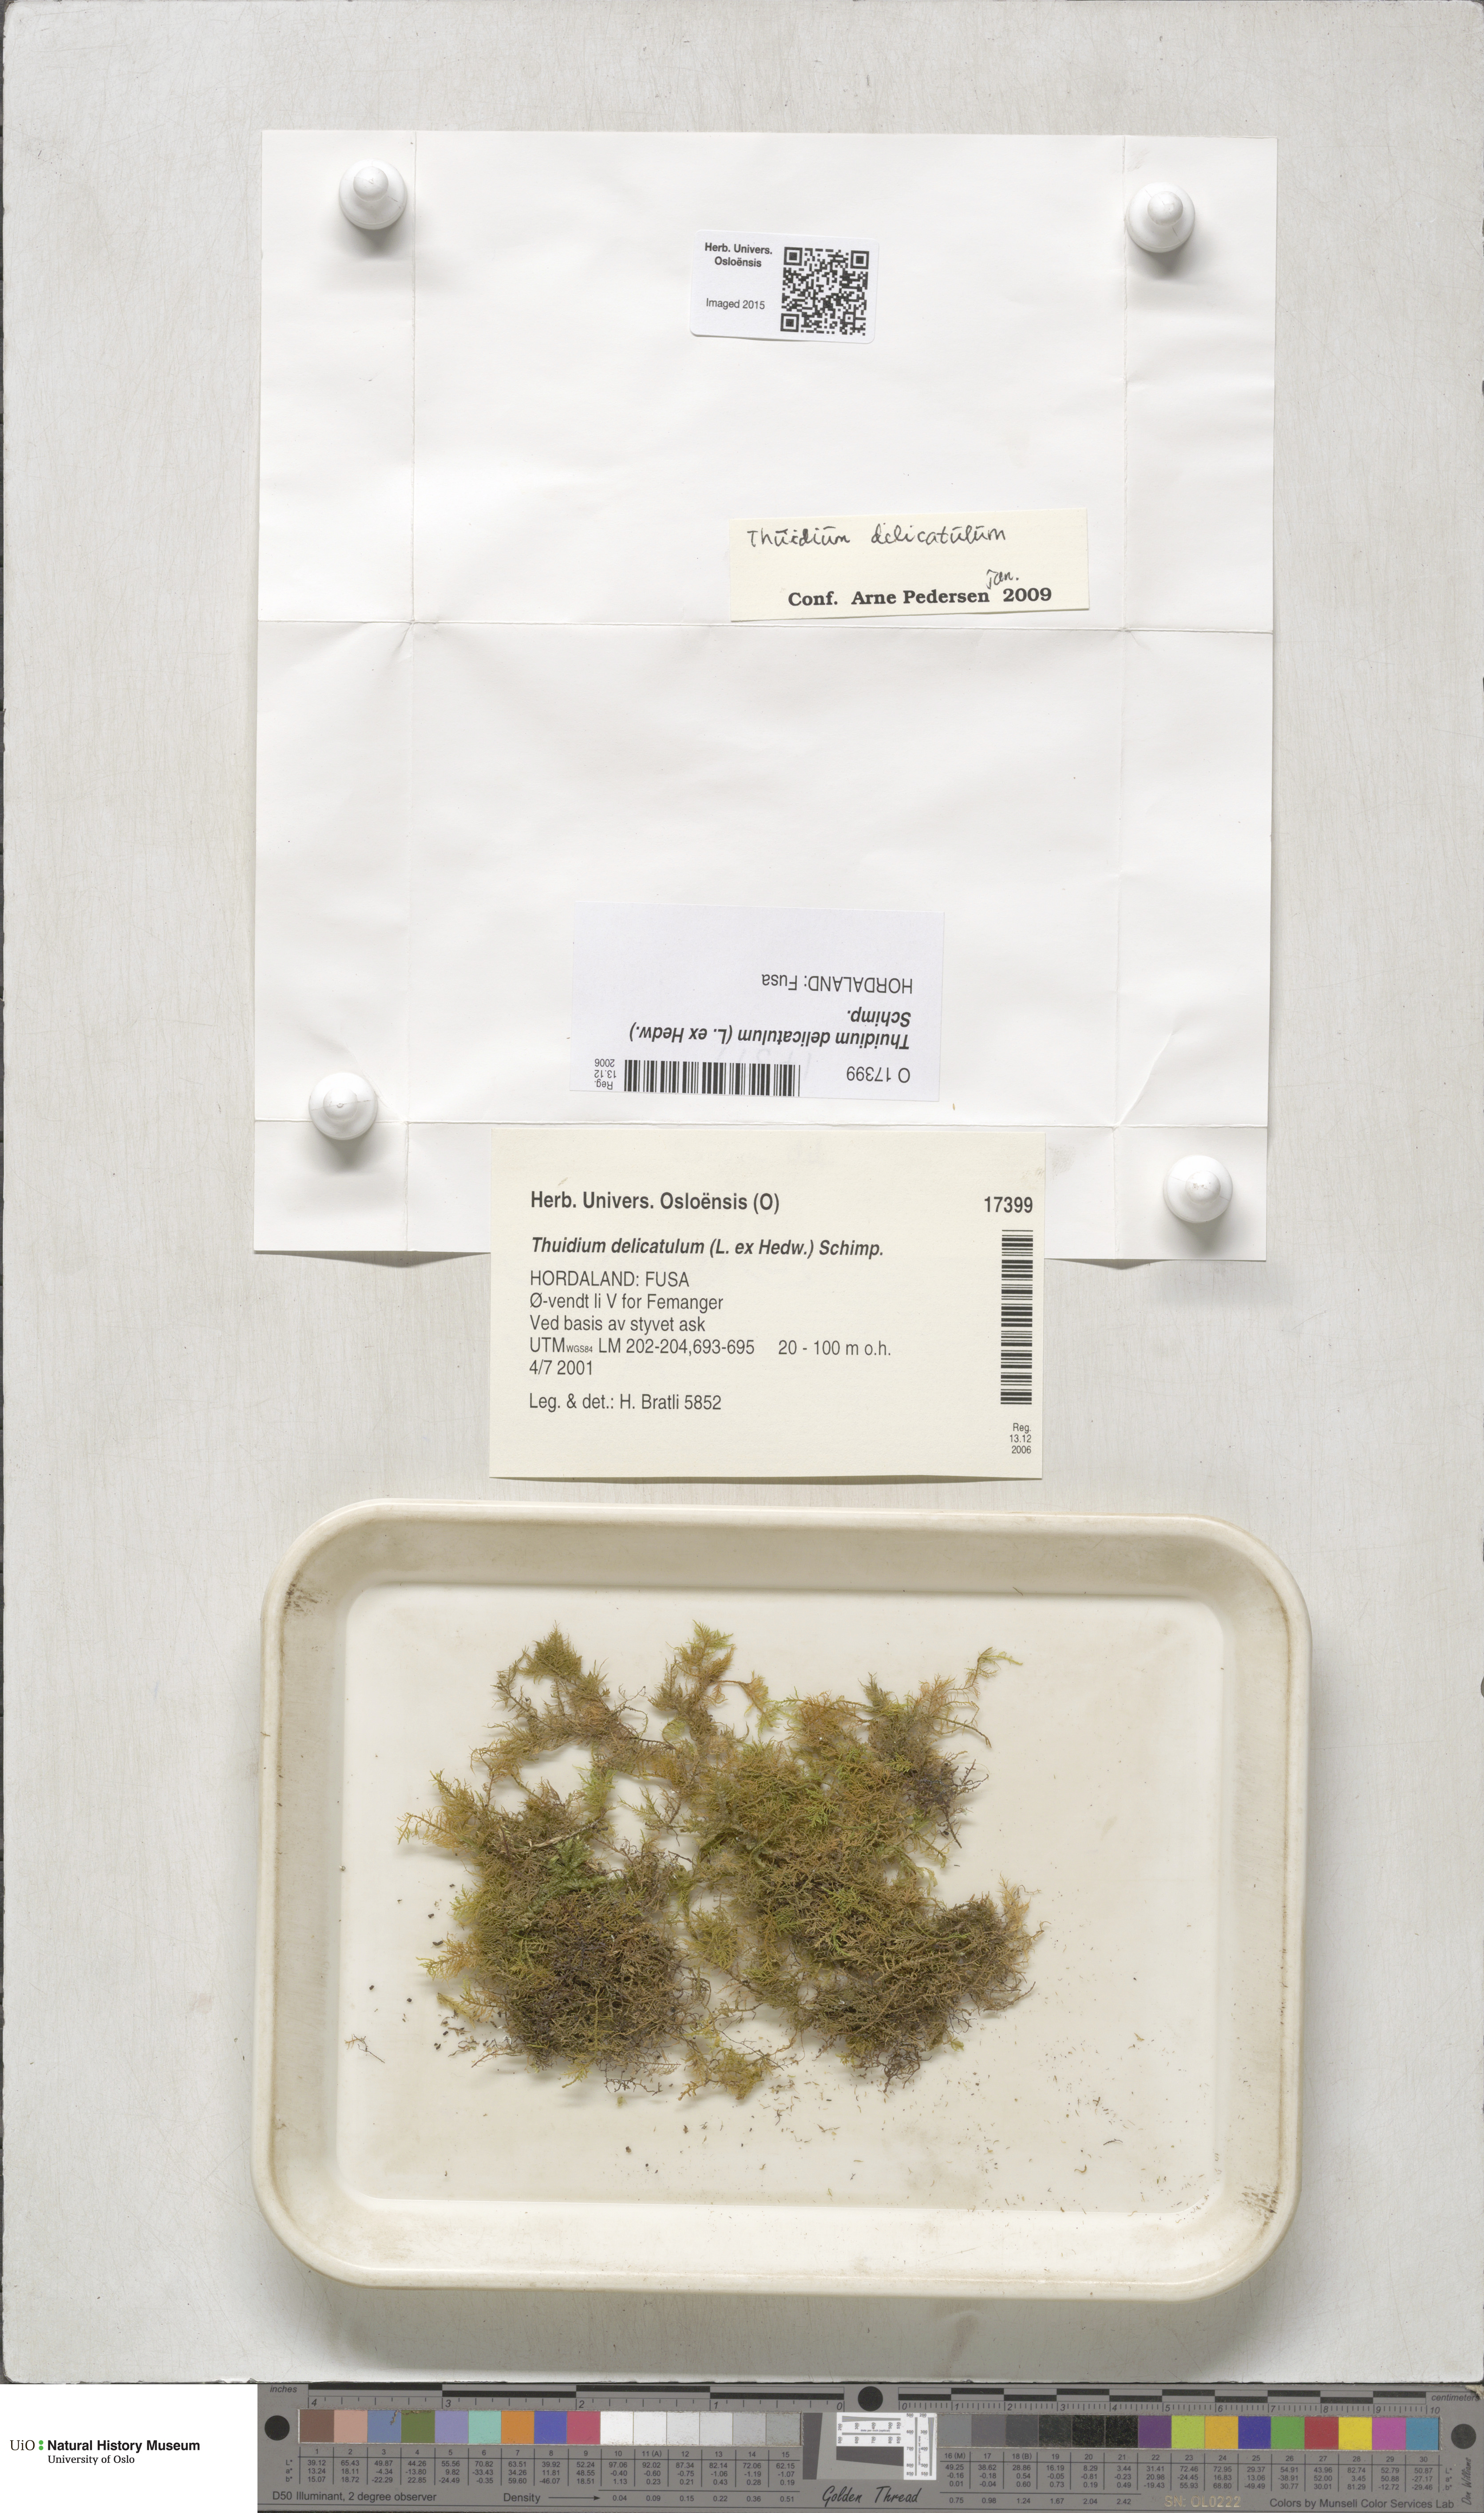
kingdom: Plantae
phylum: Bryophyta
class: Bryopsida
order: Hypnales
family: Thuidiaceae
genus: Thuidium
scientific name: Thuidium delicatulum
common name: Delicate fern moss
